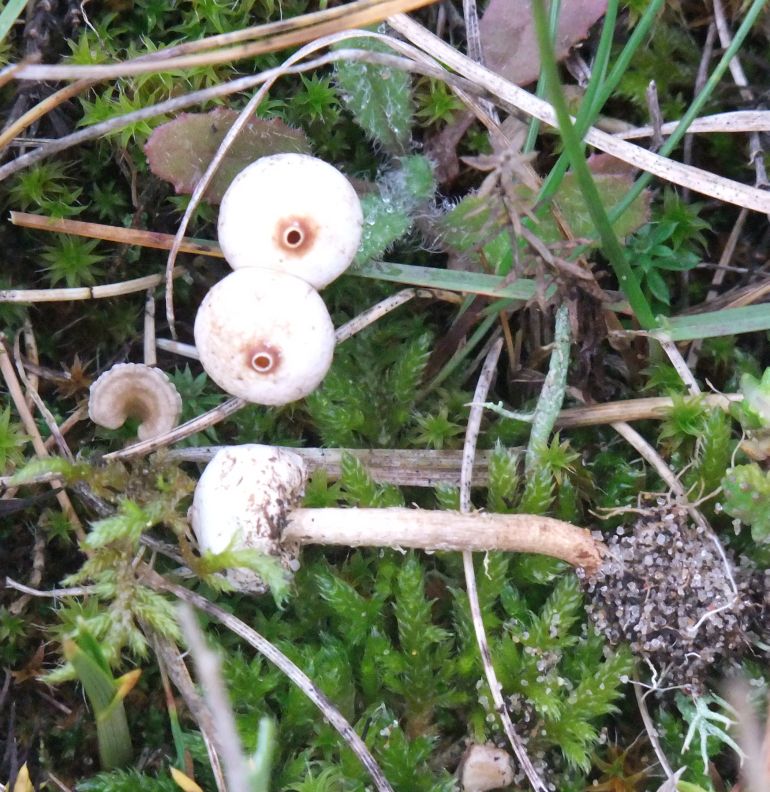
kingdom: Fungi
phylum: Basidiomycota
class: Agaricomycetes
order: Agaricales
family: Agaricaceae
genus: Tulostoma
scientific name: Tulostoma brumale
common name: vinter-stilkbovist
